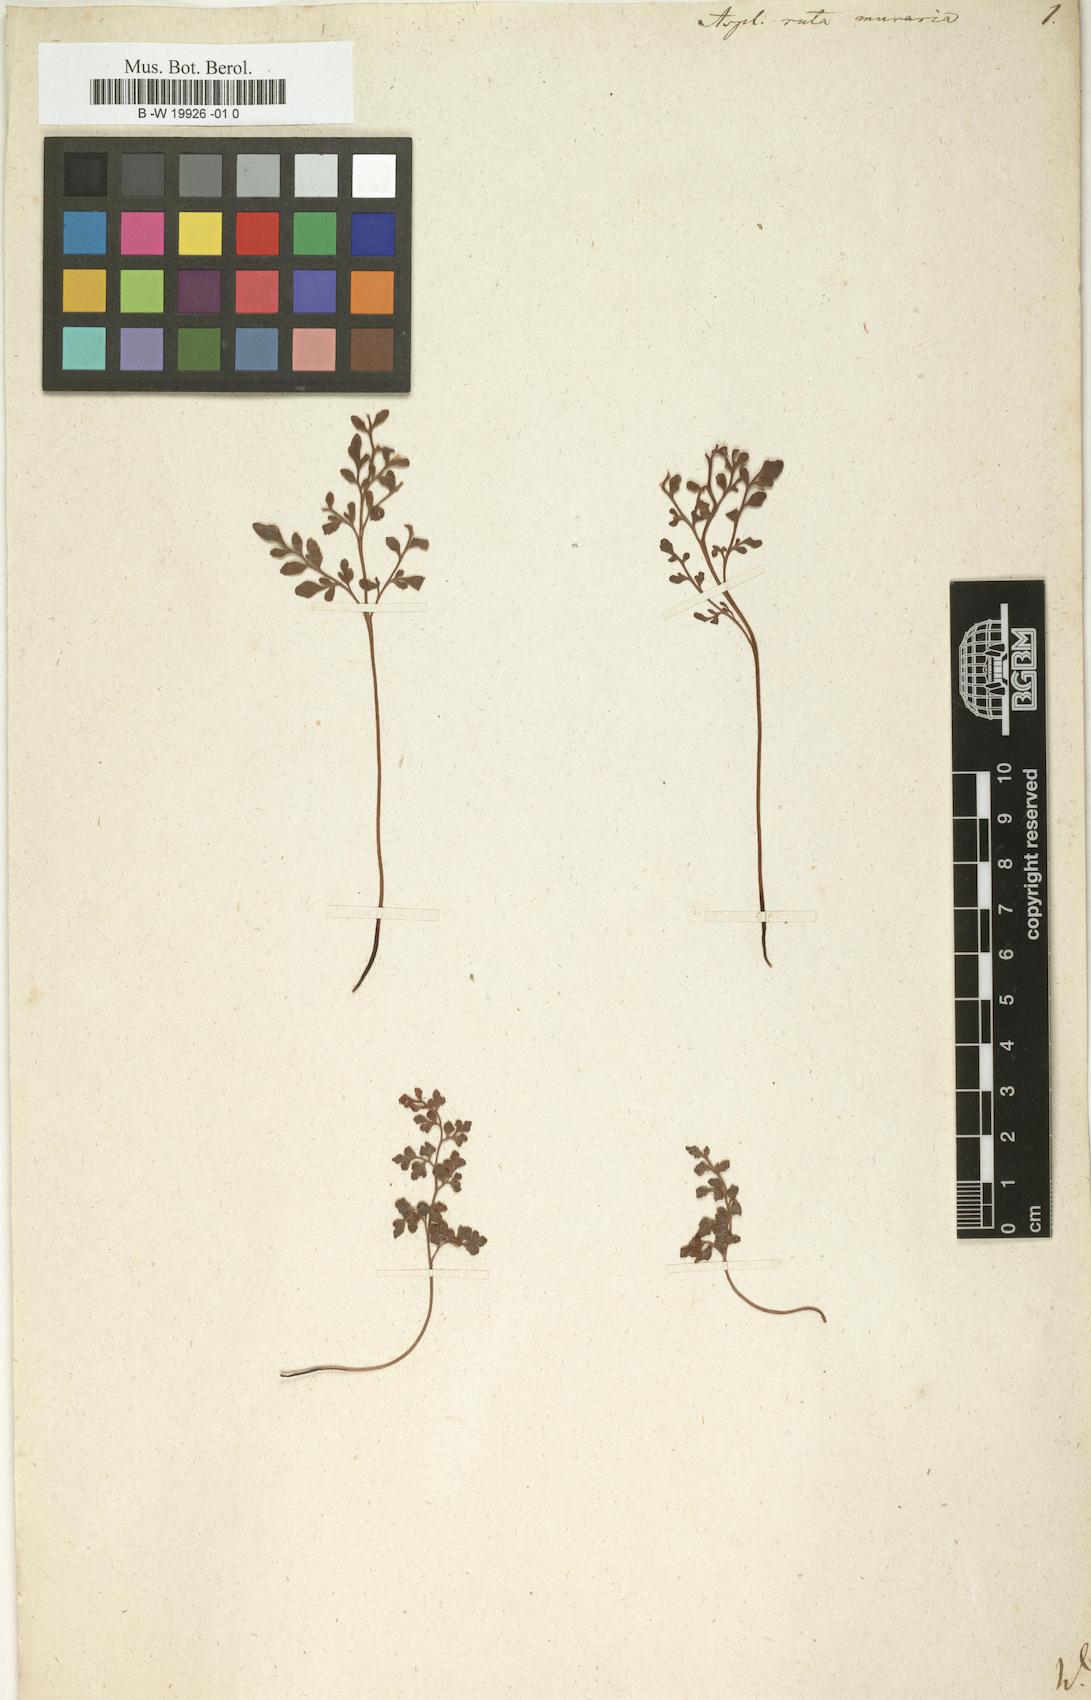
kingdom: Plantae
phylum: Tracheophyta
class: Polypodiopsida
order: Polypodiales
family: Aspleniaceae
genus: Asplenium
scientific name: Asplenium ruta-muraria
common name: Wall-rue
